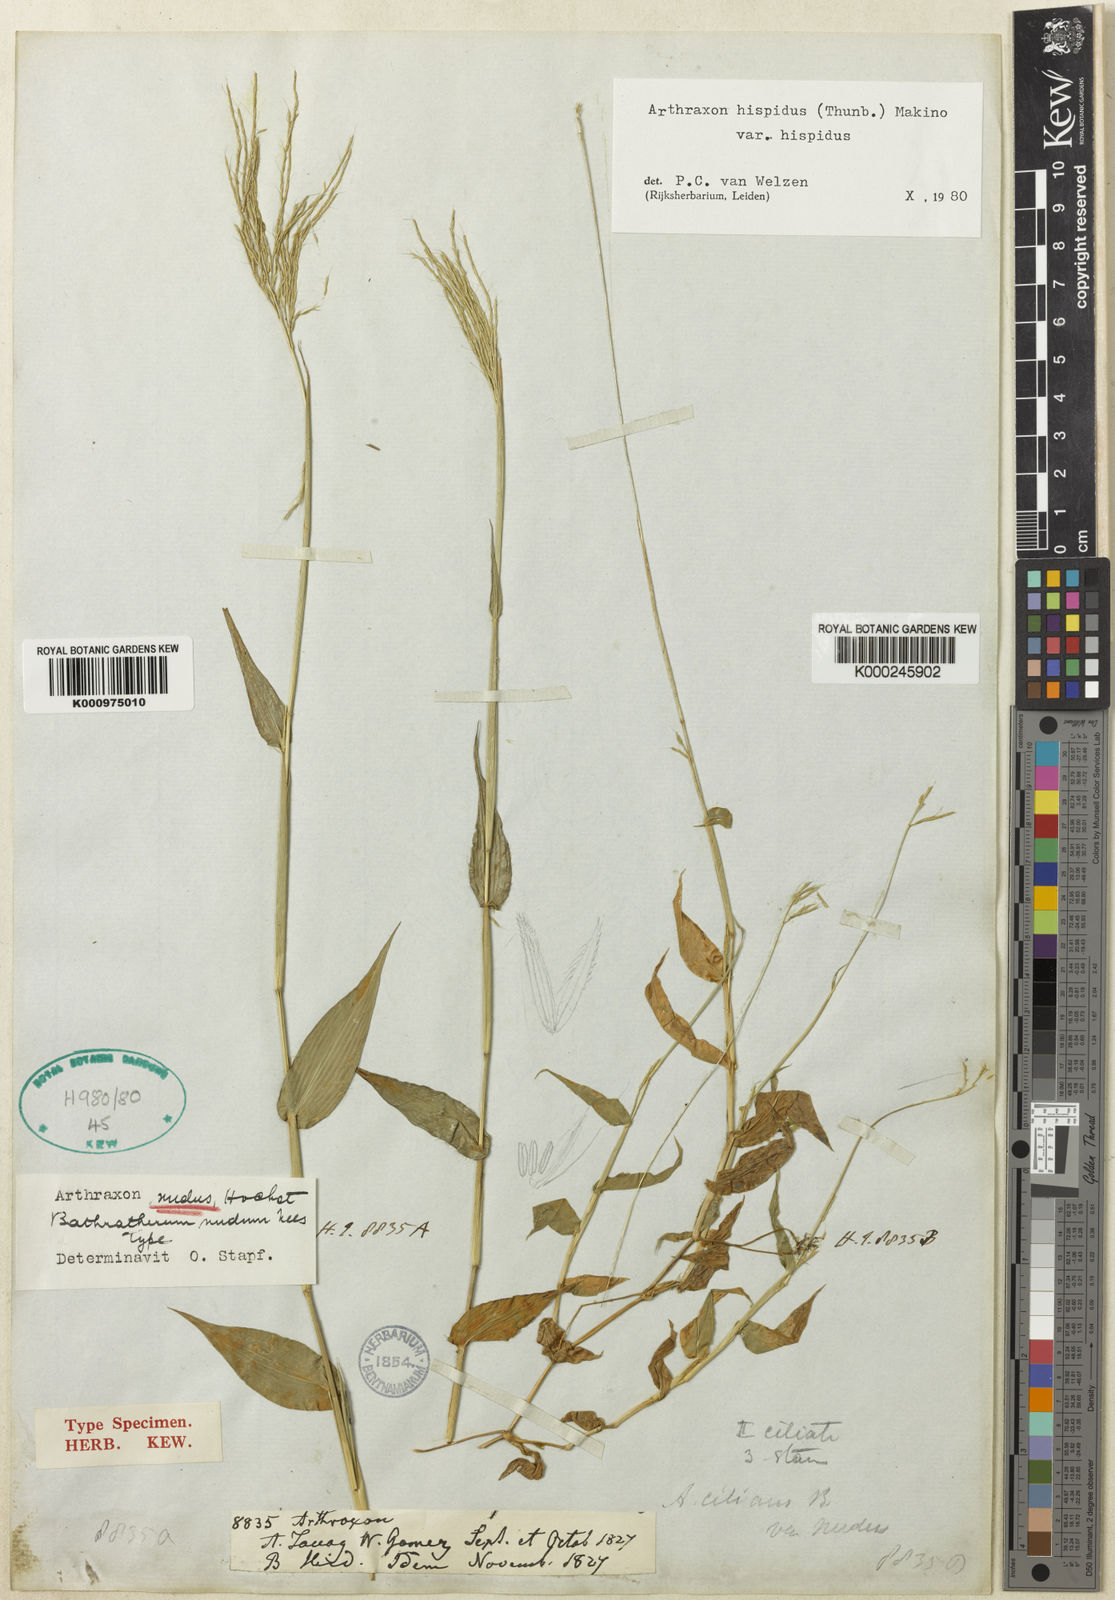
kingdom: Plantae
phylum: Tracheophyta
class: Liliopsida
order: Poales
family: Poaceae
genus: Arthraxon
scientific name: Arthraxon nudus
